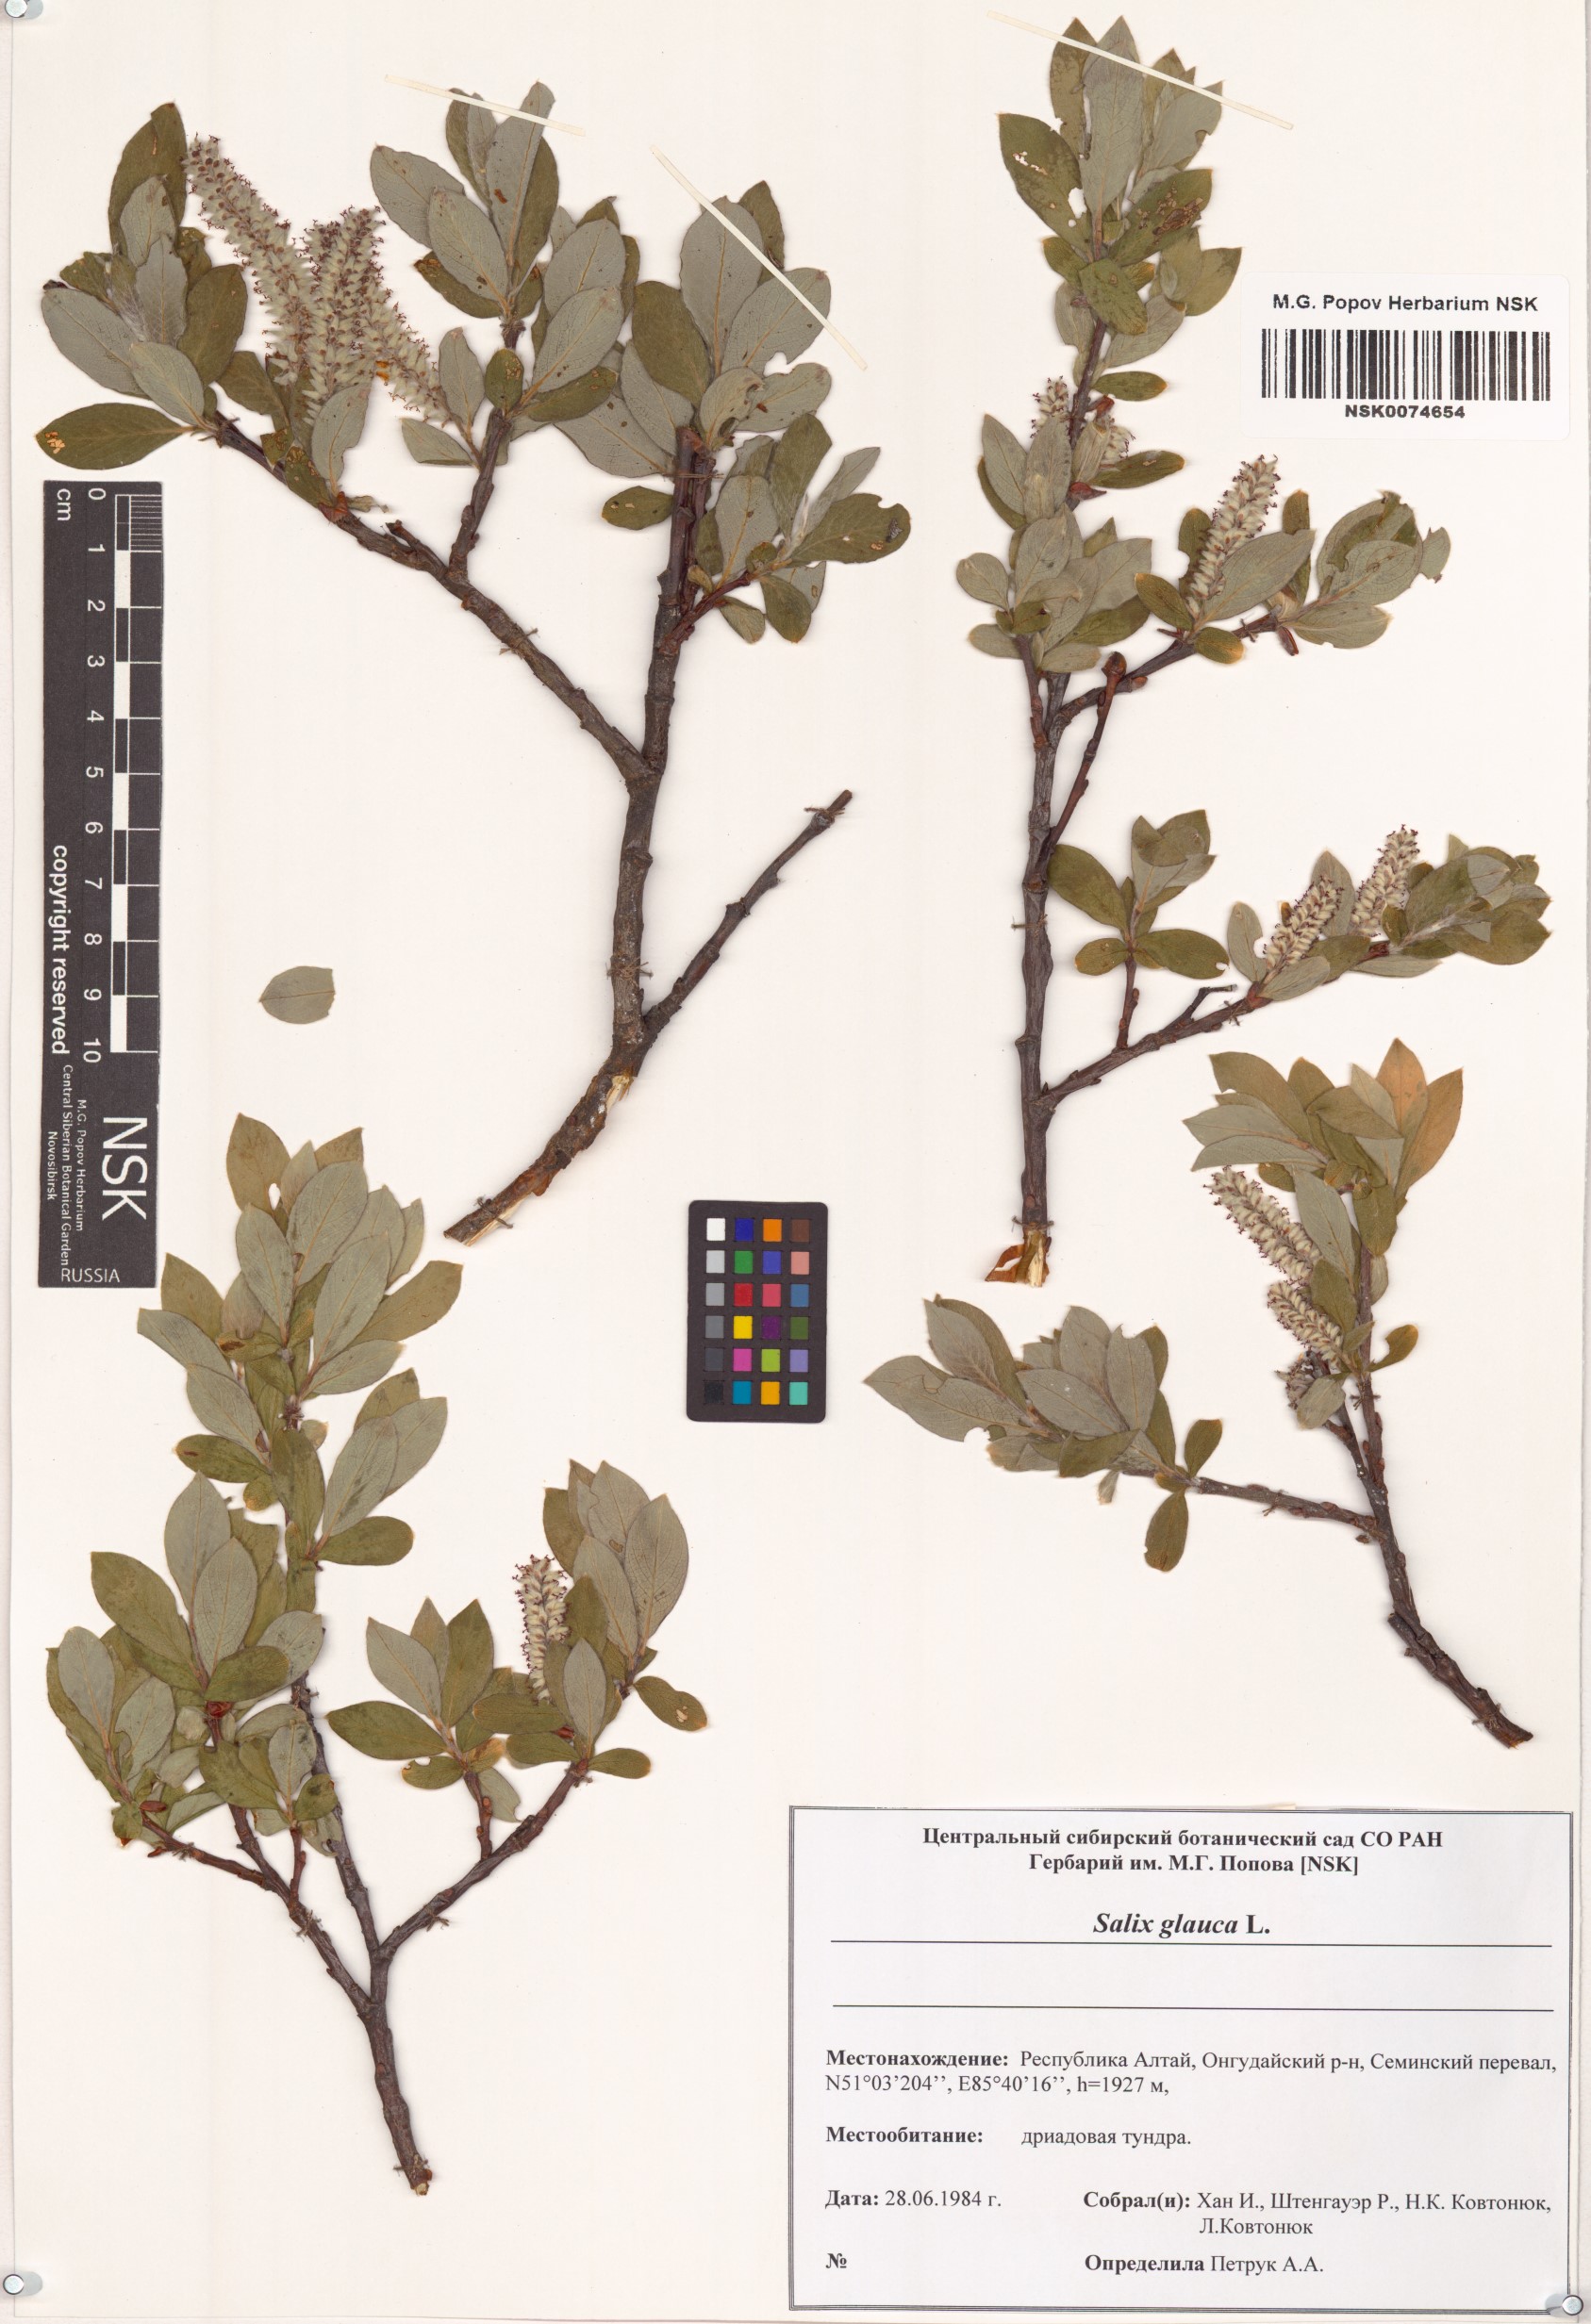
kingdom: Plantae
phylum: Tracheophyta
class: Magnoliopsida
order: Malpighiales
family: Salicaceae
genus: Salix
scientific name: Salix glauca
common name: Glaucous willow
